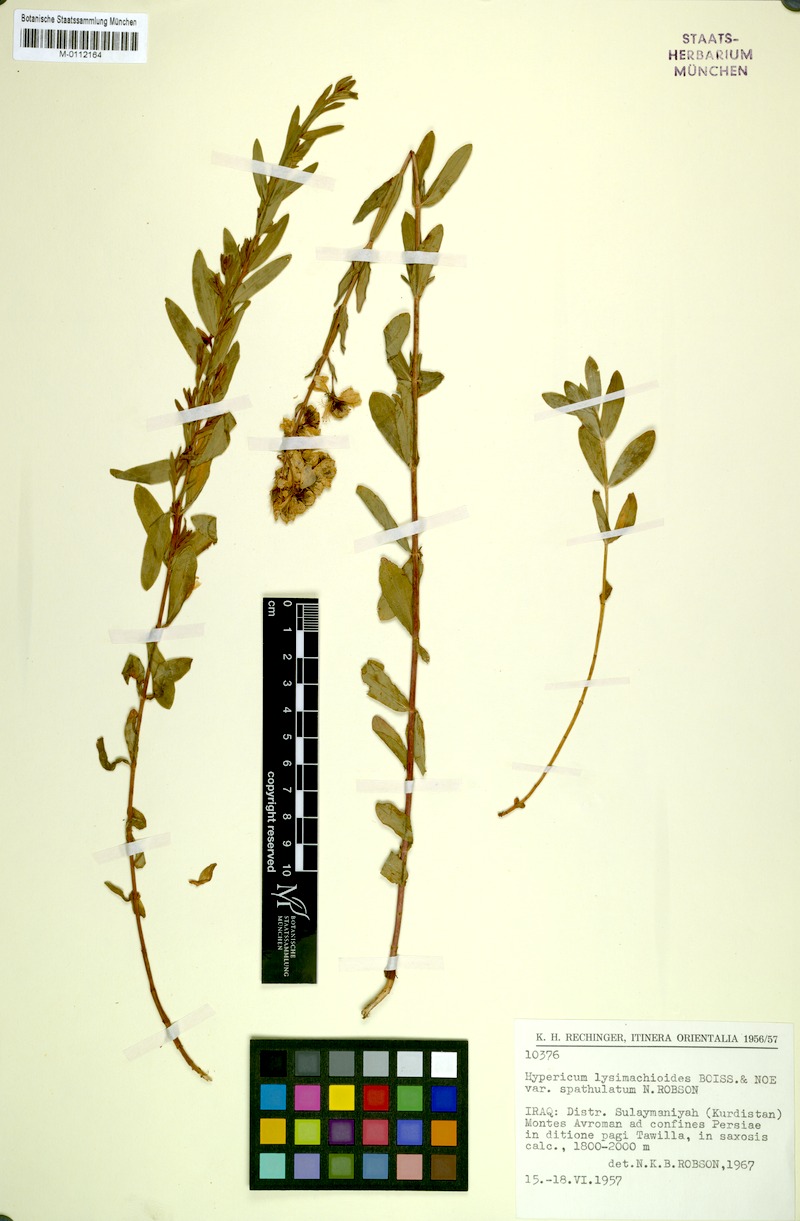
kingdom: Plantae
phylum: Tracheophyta
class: Magnoliopsida
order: Malpighiales
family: Hypericaceae
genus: Hypericum
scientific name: Hypericum lysimachioides
